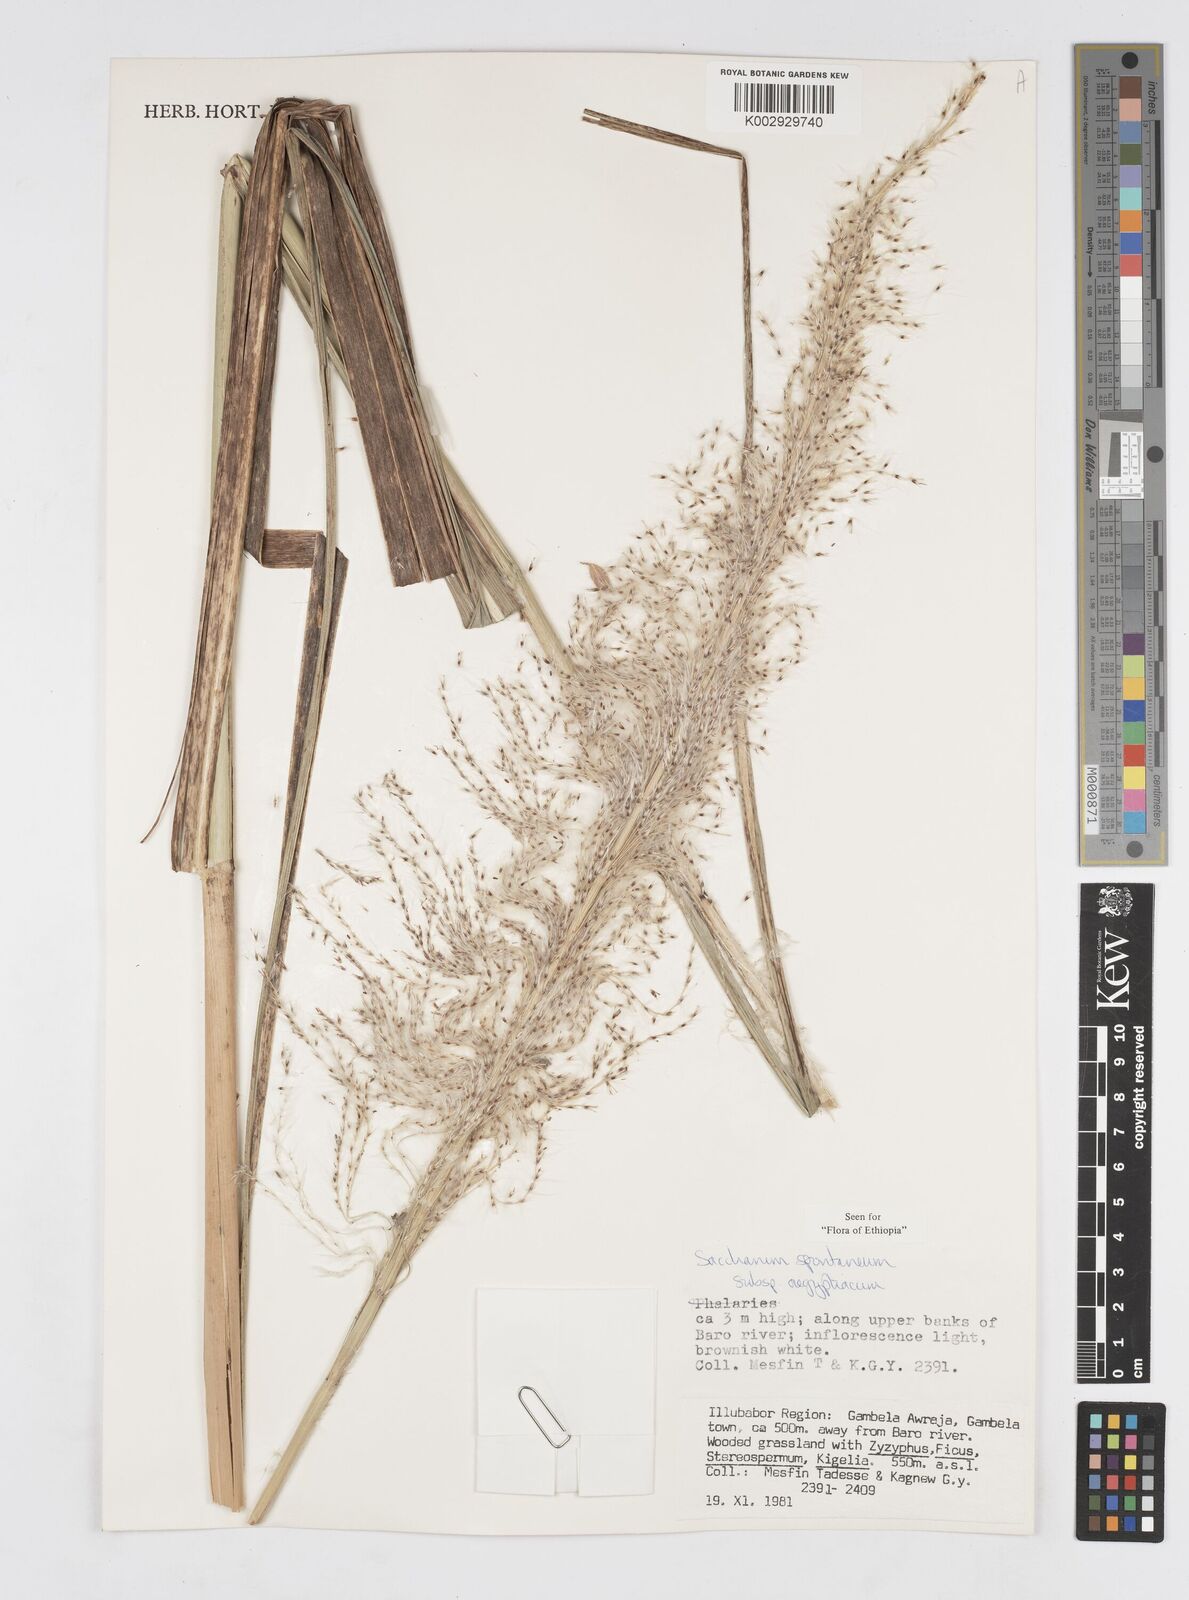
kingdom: Plantae
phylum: Tracheophyta
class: Liliopsida
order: Poales
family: Poaceae
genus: Saccharum
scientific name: Saccharum spontaneum
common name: Wild sugarcane
